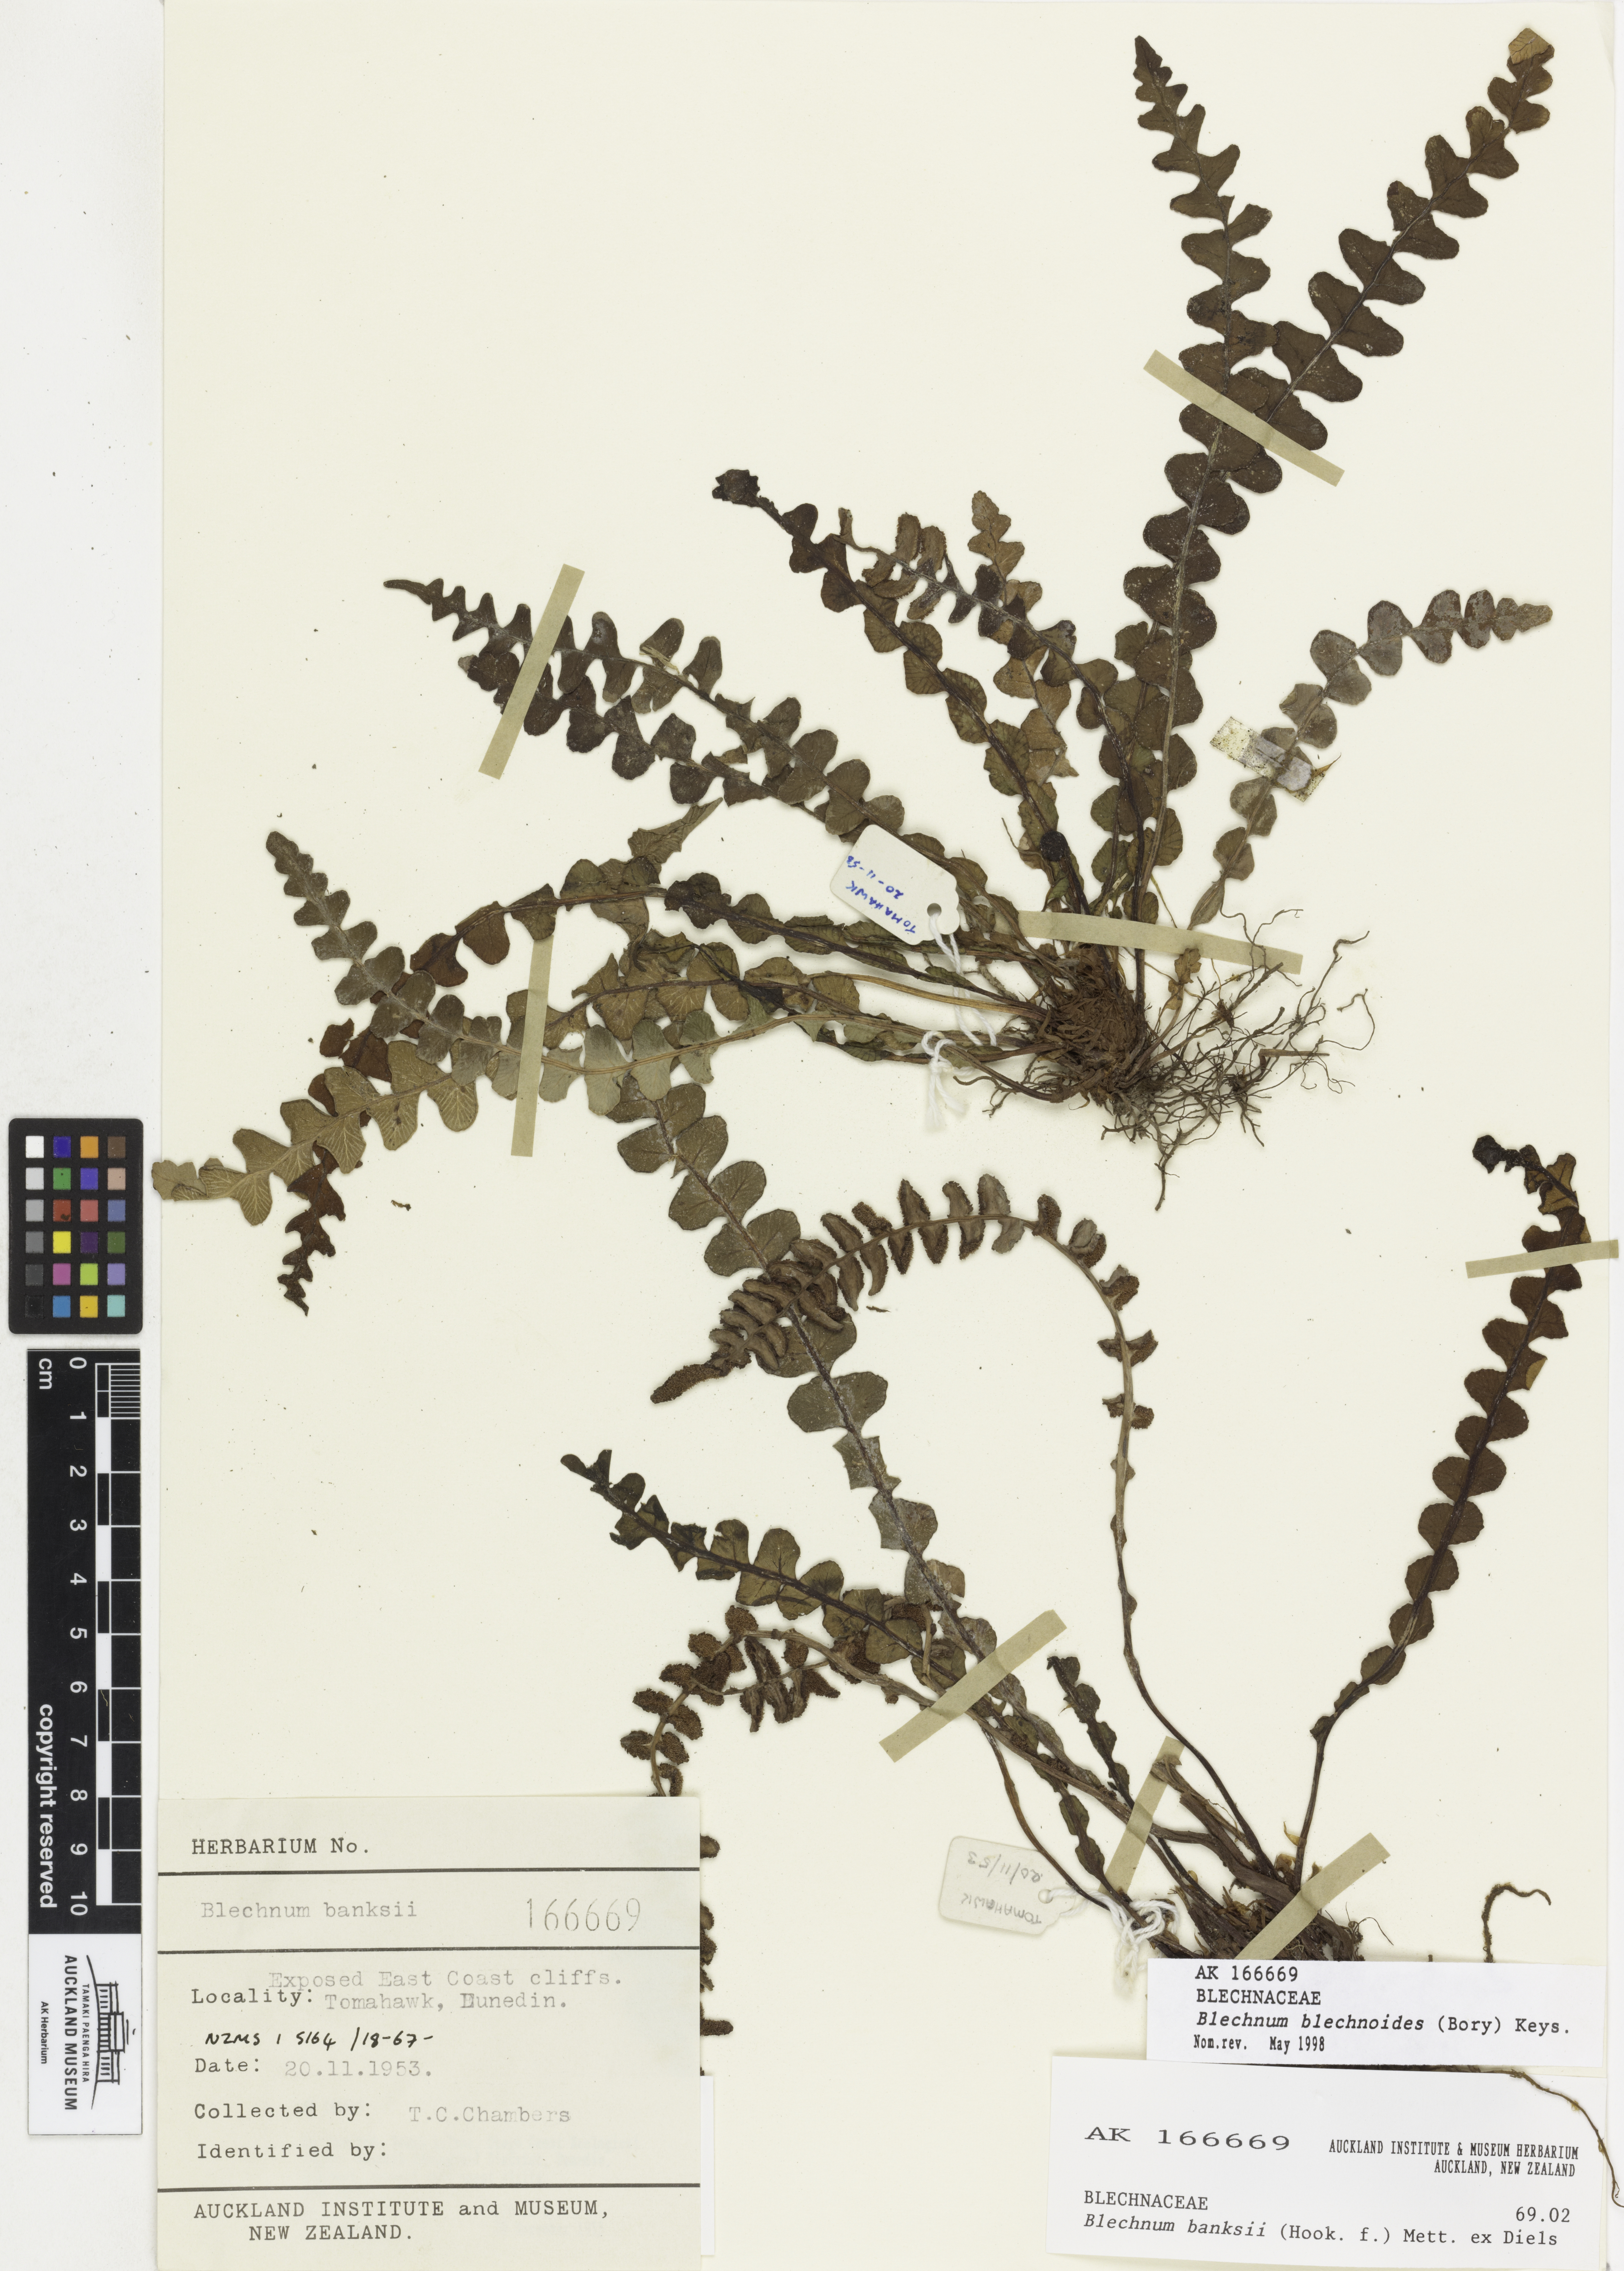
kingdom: Plantae
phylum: Tracheophyta
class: Polypodiopsida
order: Polypodiales
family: Blechnaceae
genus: Austroblechnum
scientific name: Austroblechnum leyboldtianum
